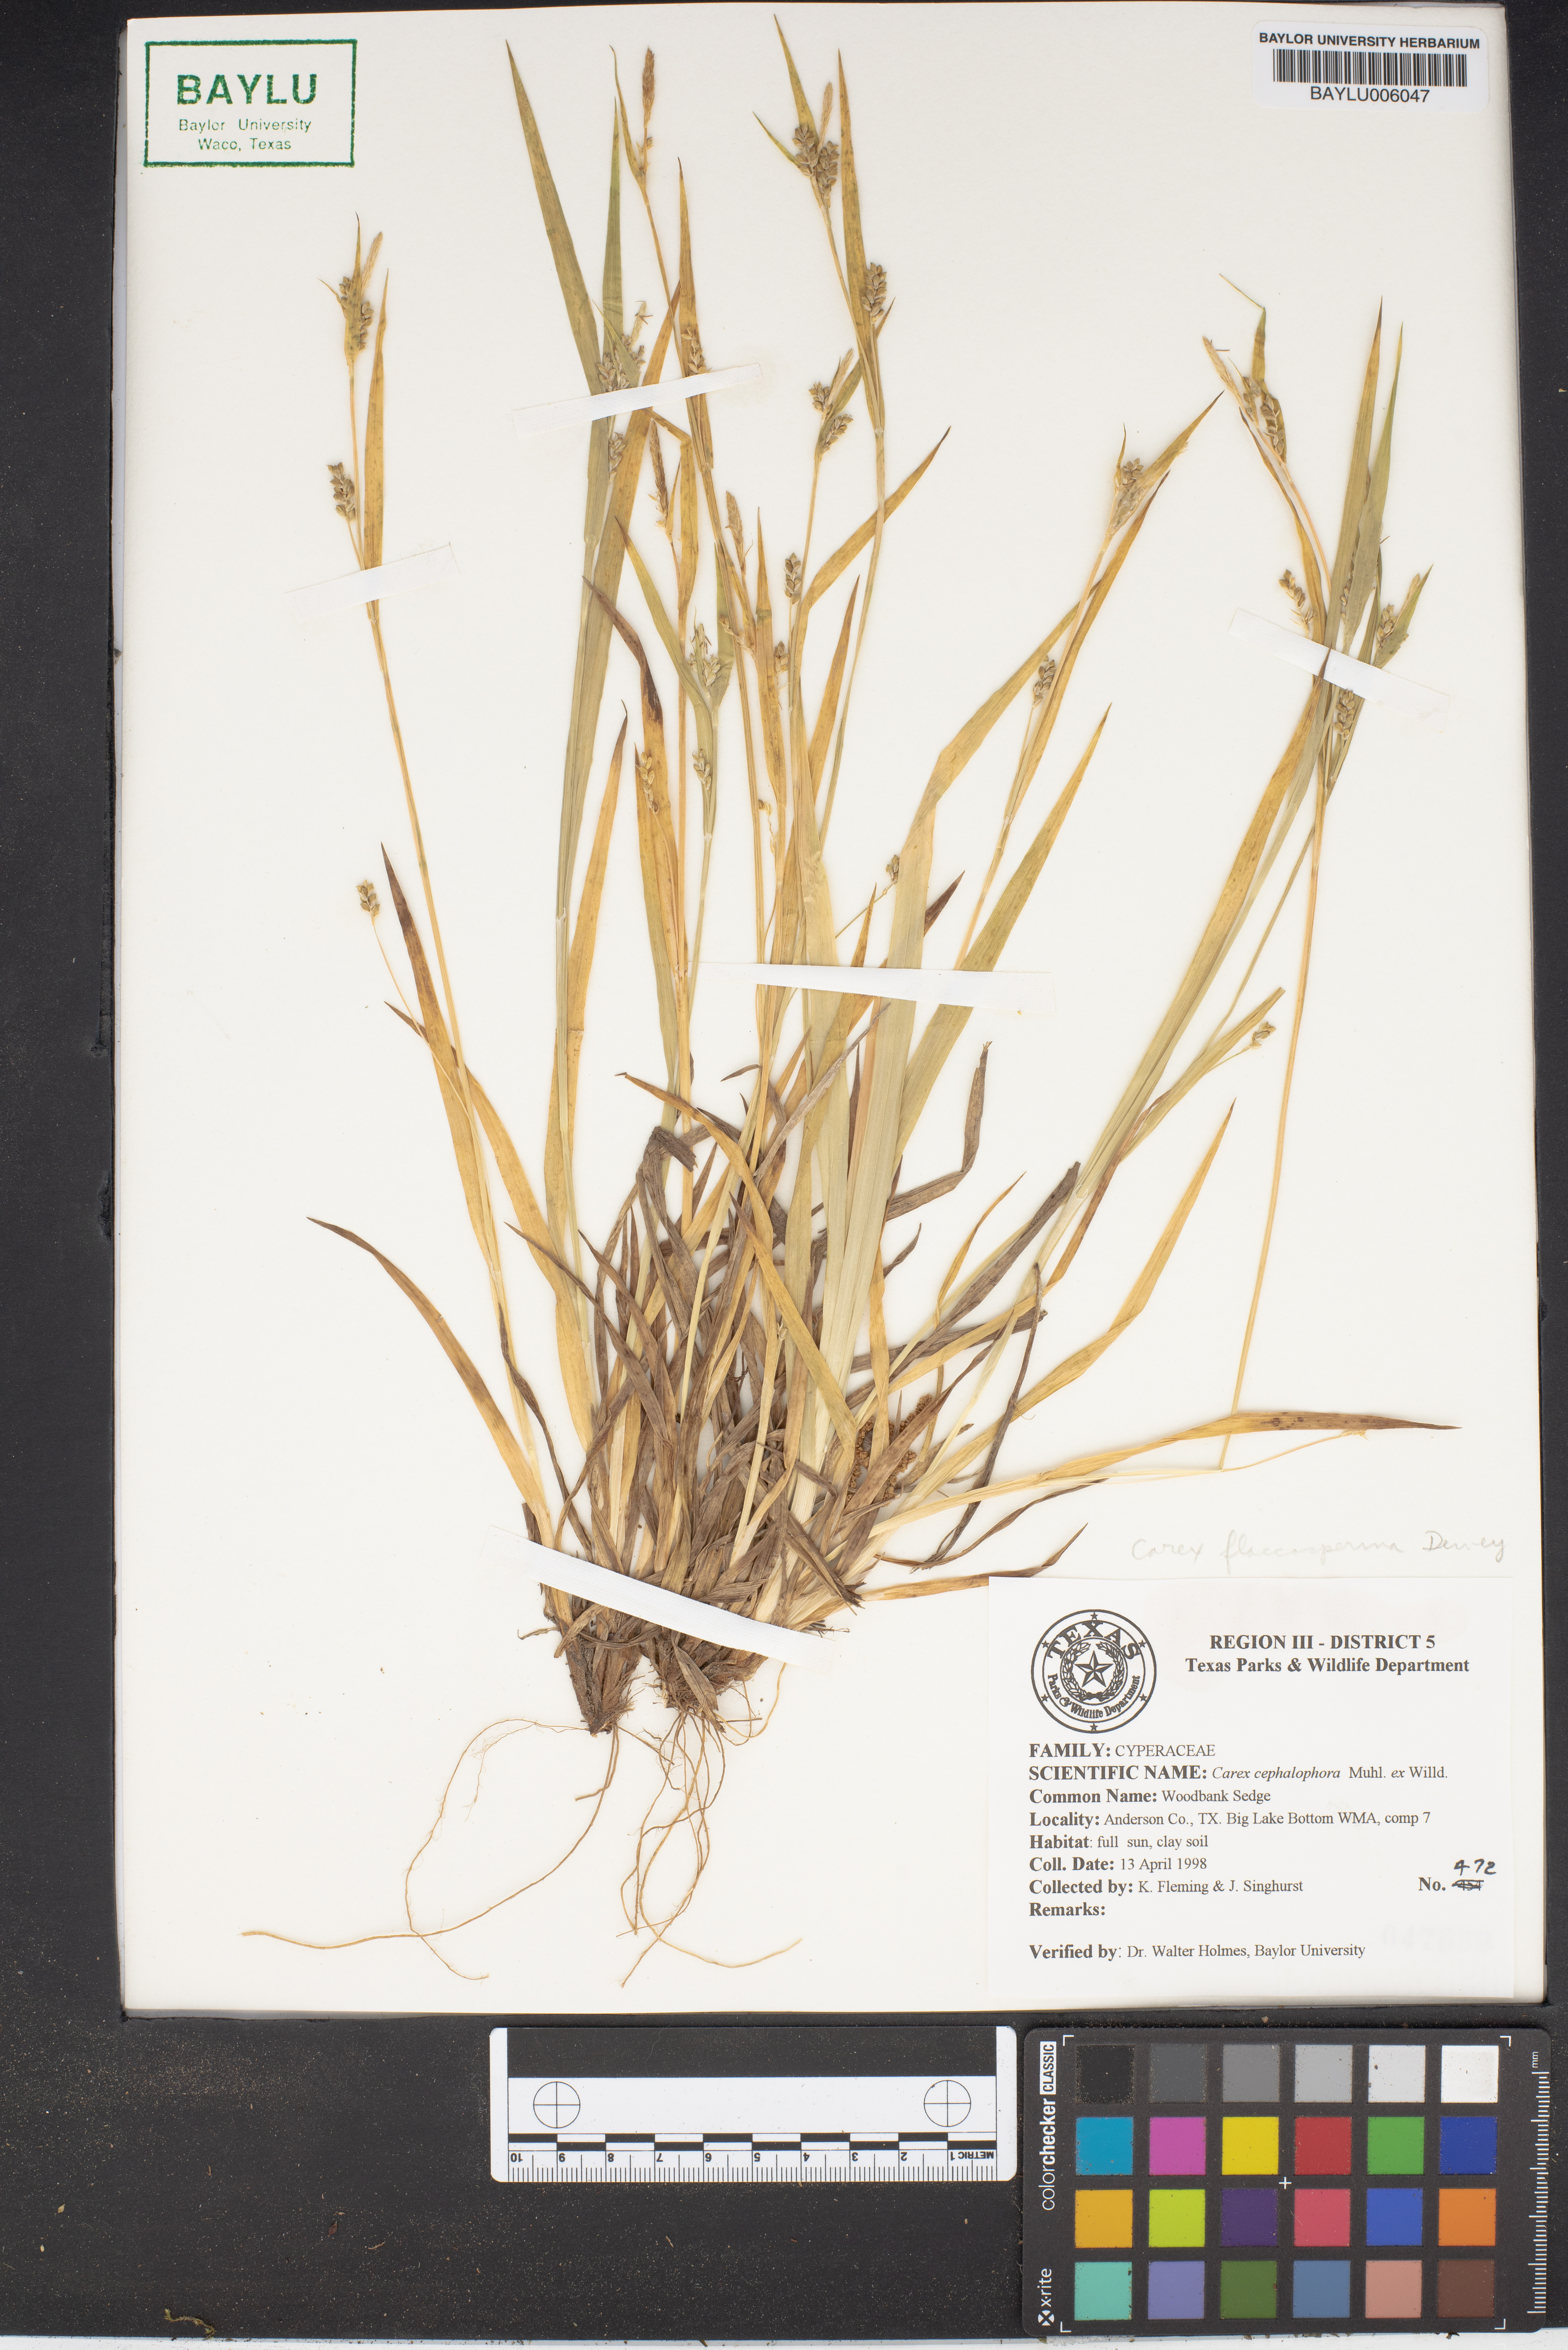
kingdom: Plantae
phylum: Tracheophyta
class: Liliopsida
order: Poales
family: Cyperaceae
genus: Carex
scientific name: Carex cephalophora
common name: Oval-headed sedge
